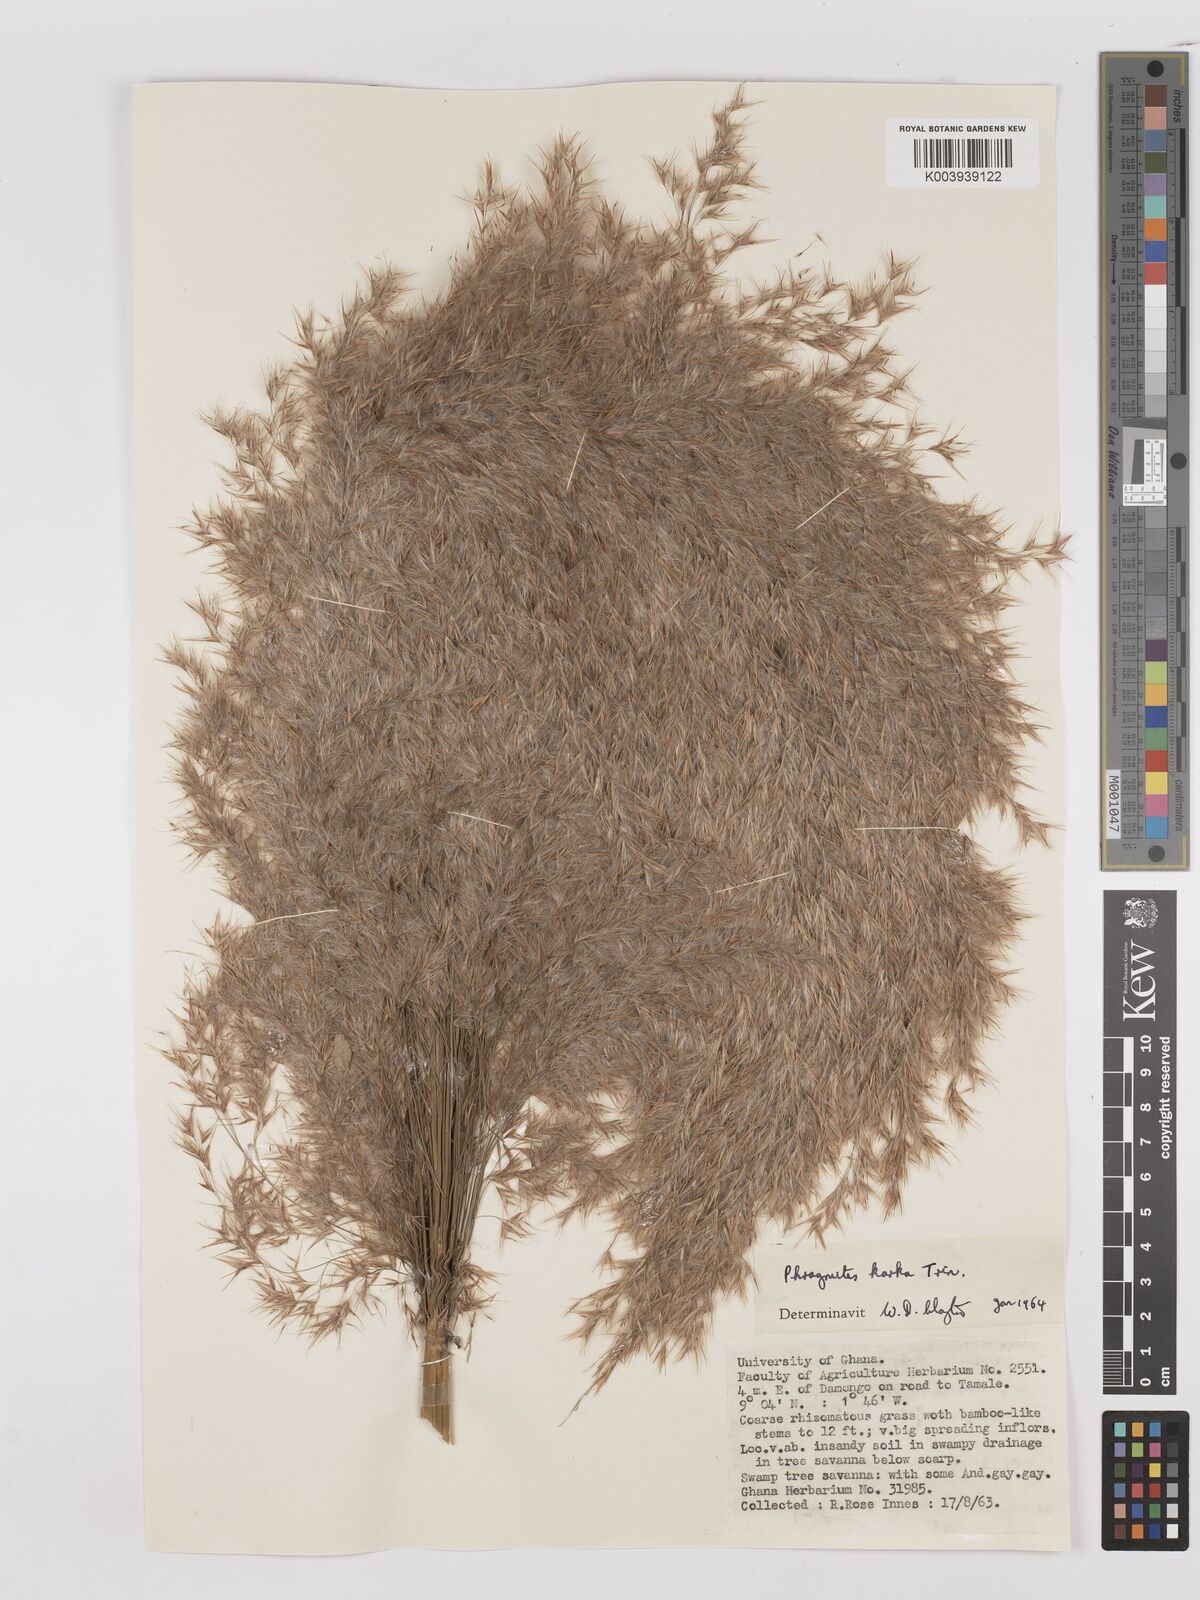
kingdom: Plantae
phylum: Tracheophyta
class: Liliopsida
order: Poales
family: Poaceae
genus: Phragmites
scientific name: Phragmites karka
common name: Tropical reed
